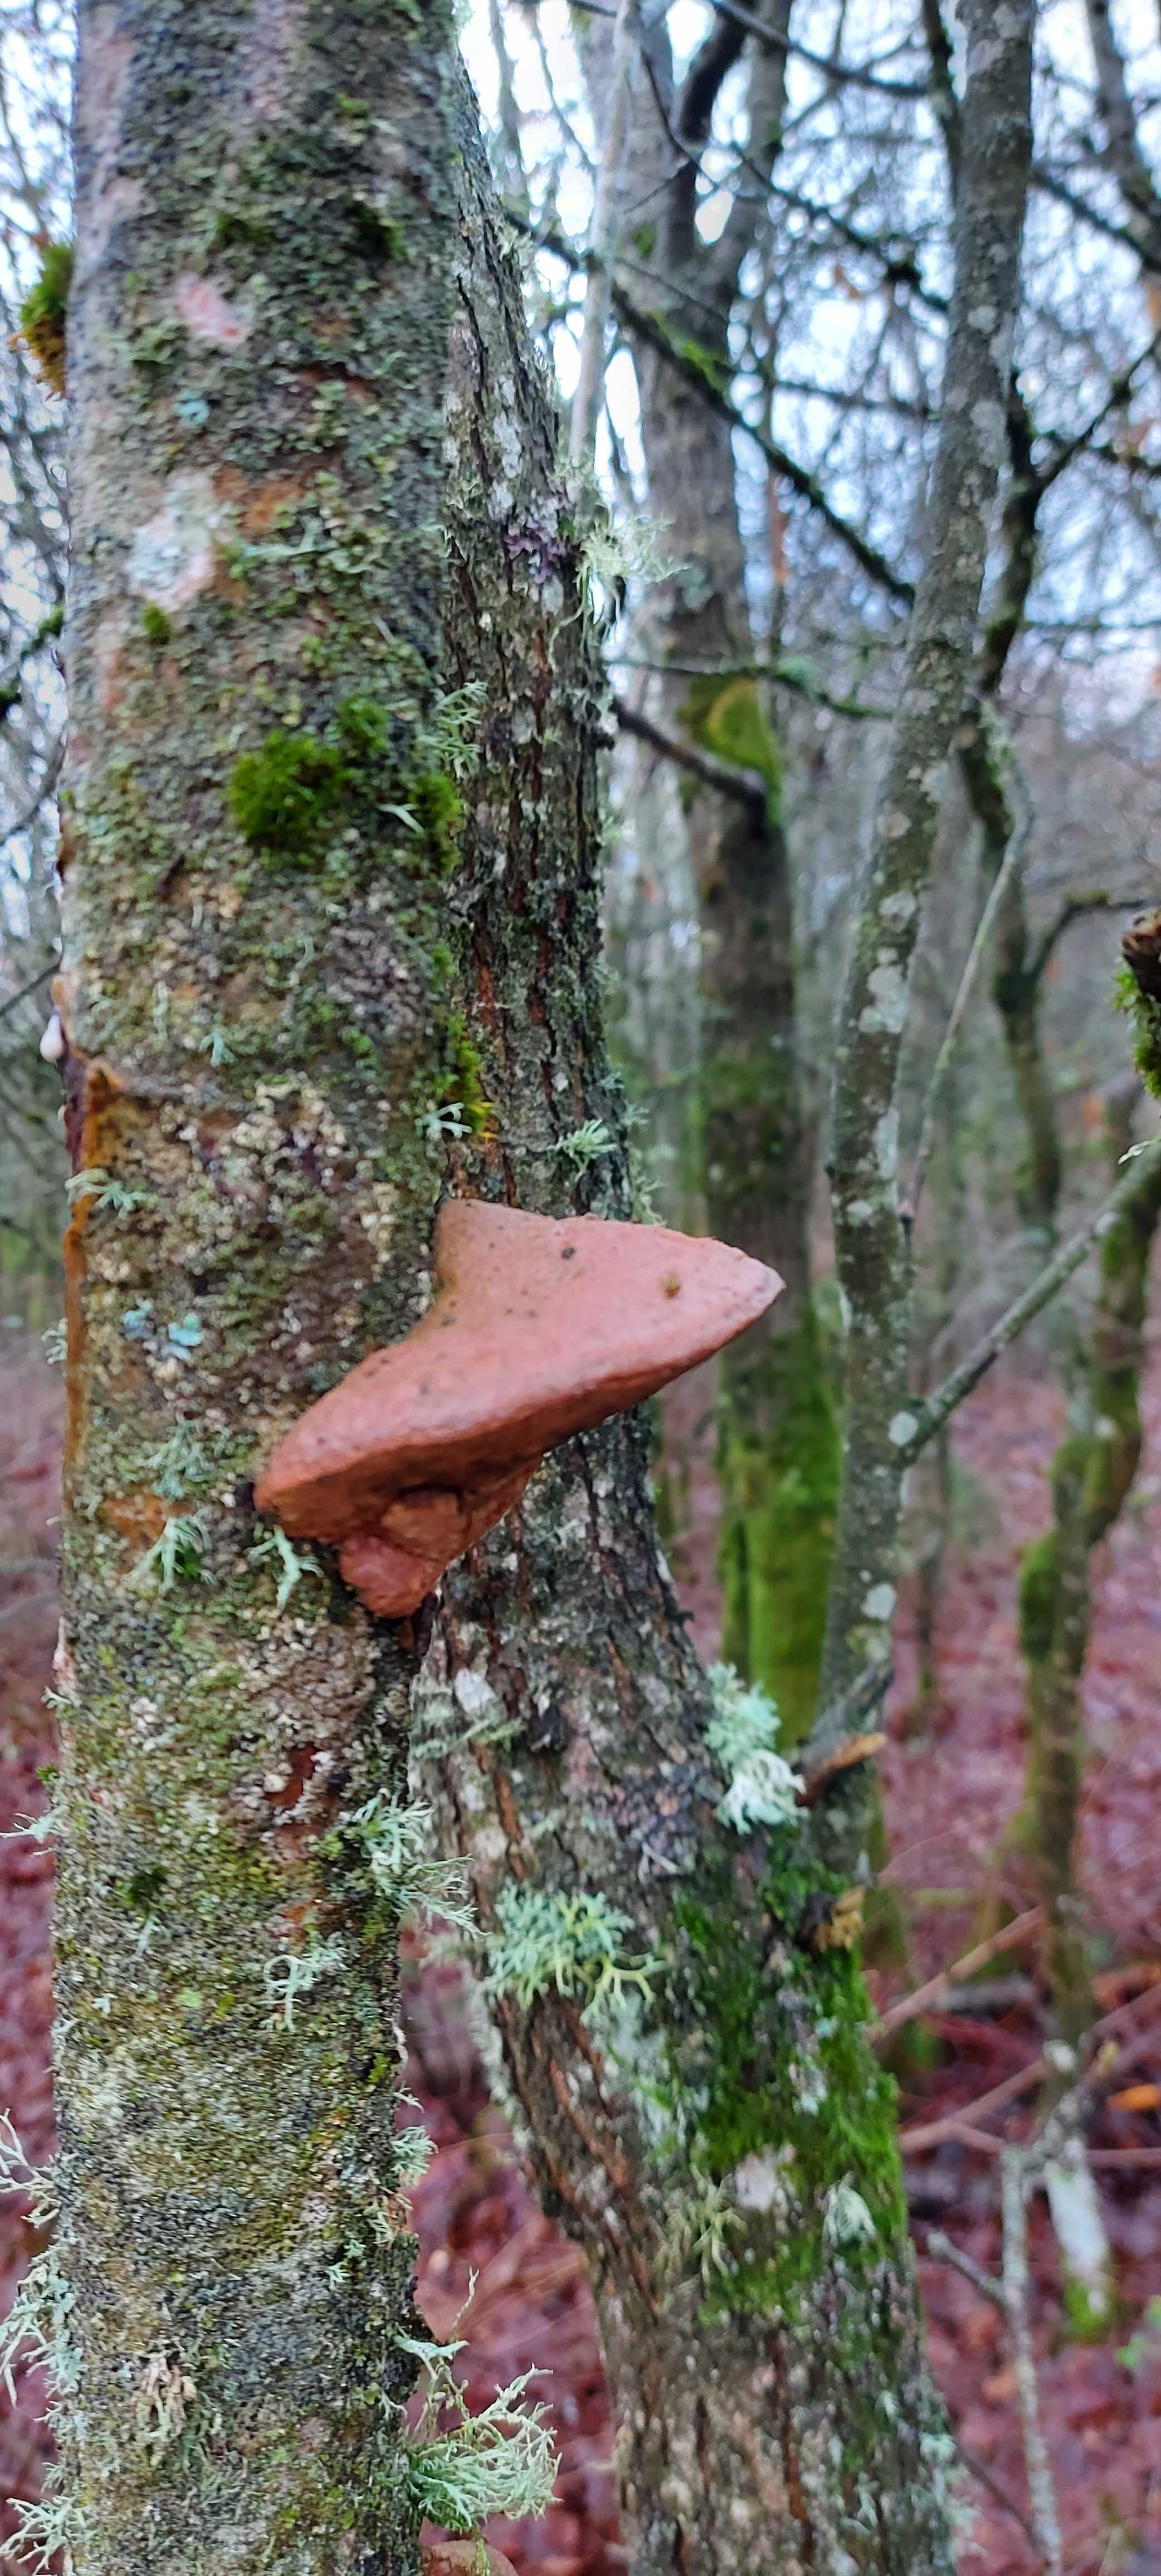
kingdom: Fungi
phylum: Basidiomycota
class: Agaricomycetes
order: Polyporales
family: Phanerochaetaceae
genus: Hapalopilus
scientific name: Hapalopilus rutilans
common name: rødlig okkerporesvamp
